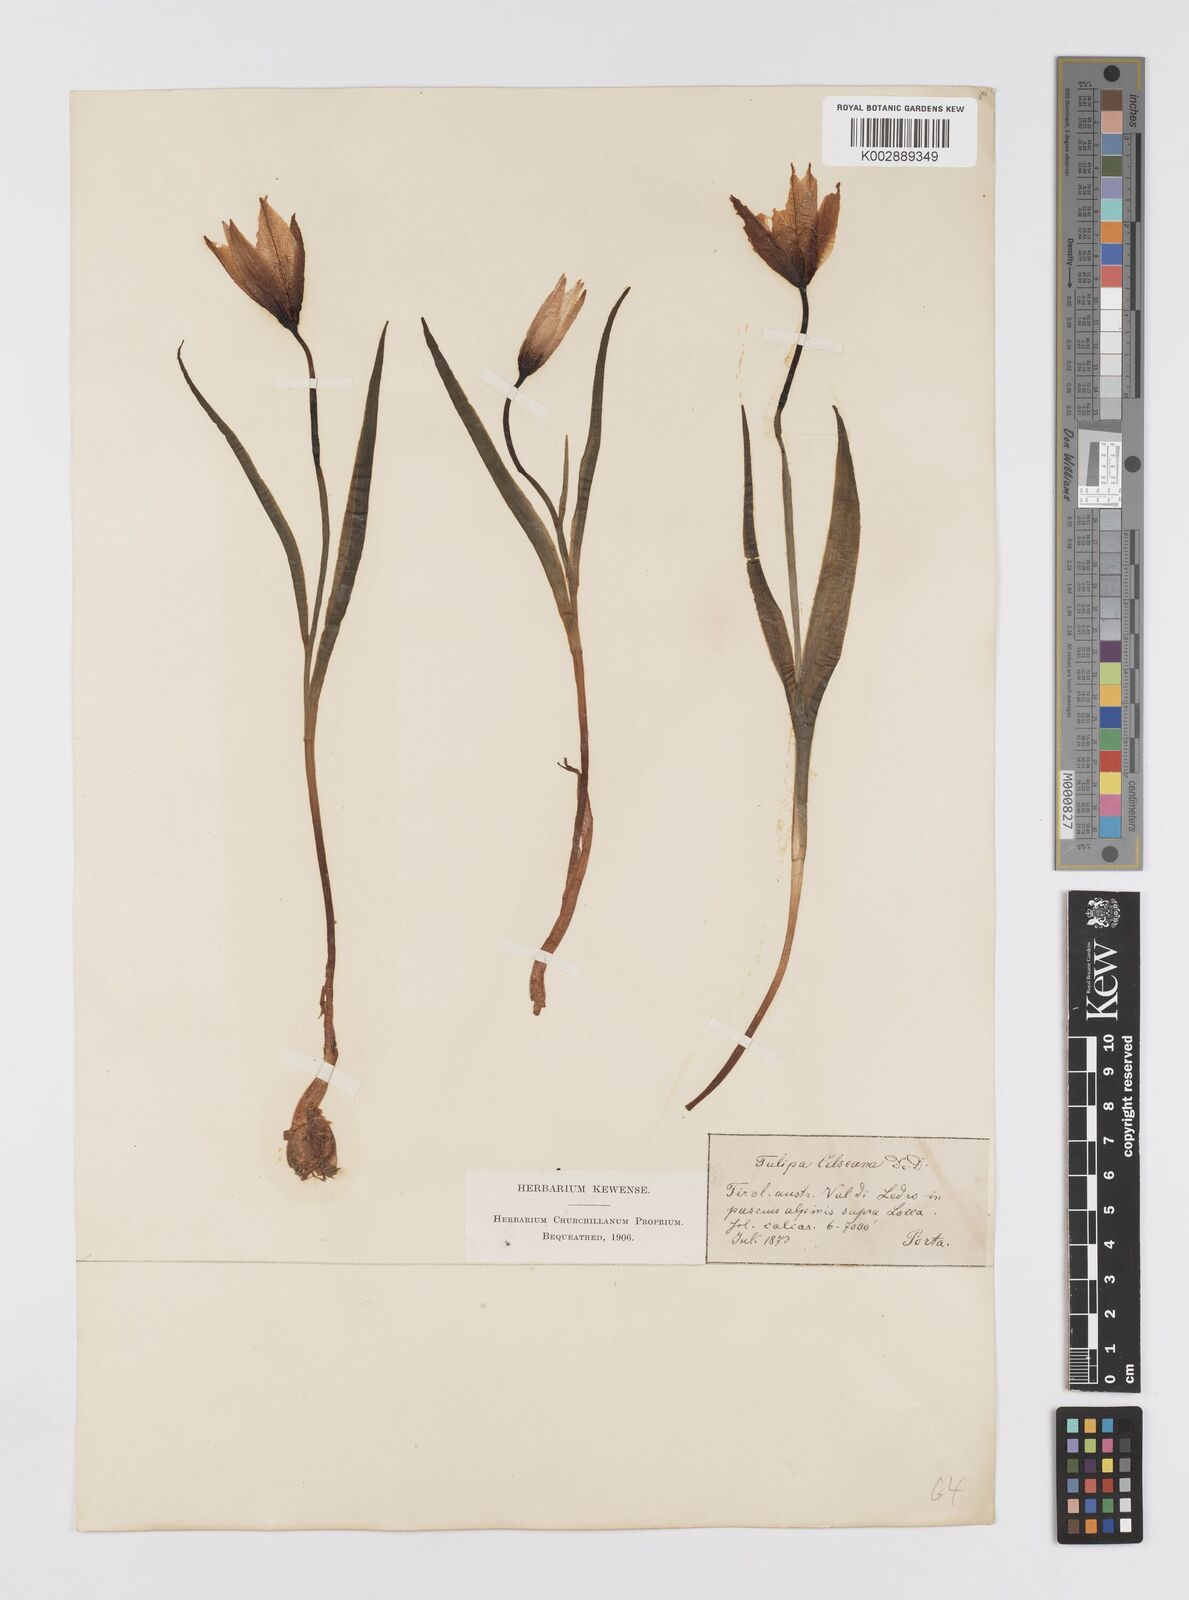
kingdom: Plantae
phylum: Tracheophyta
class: Liliopsida
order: Liliales
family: Liliaceae
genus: Tulipa
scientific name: Tulipa sylvestris
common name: Wild tulip
